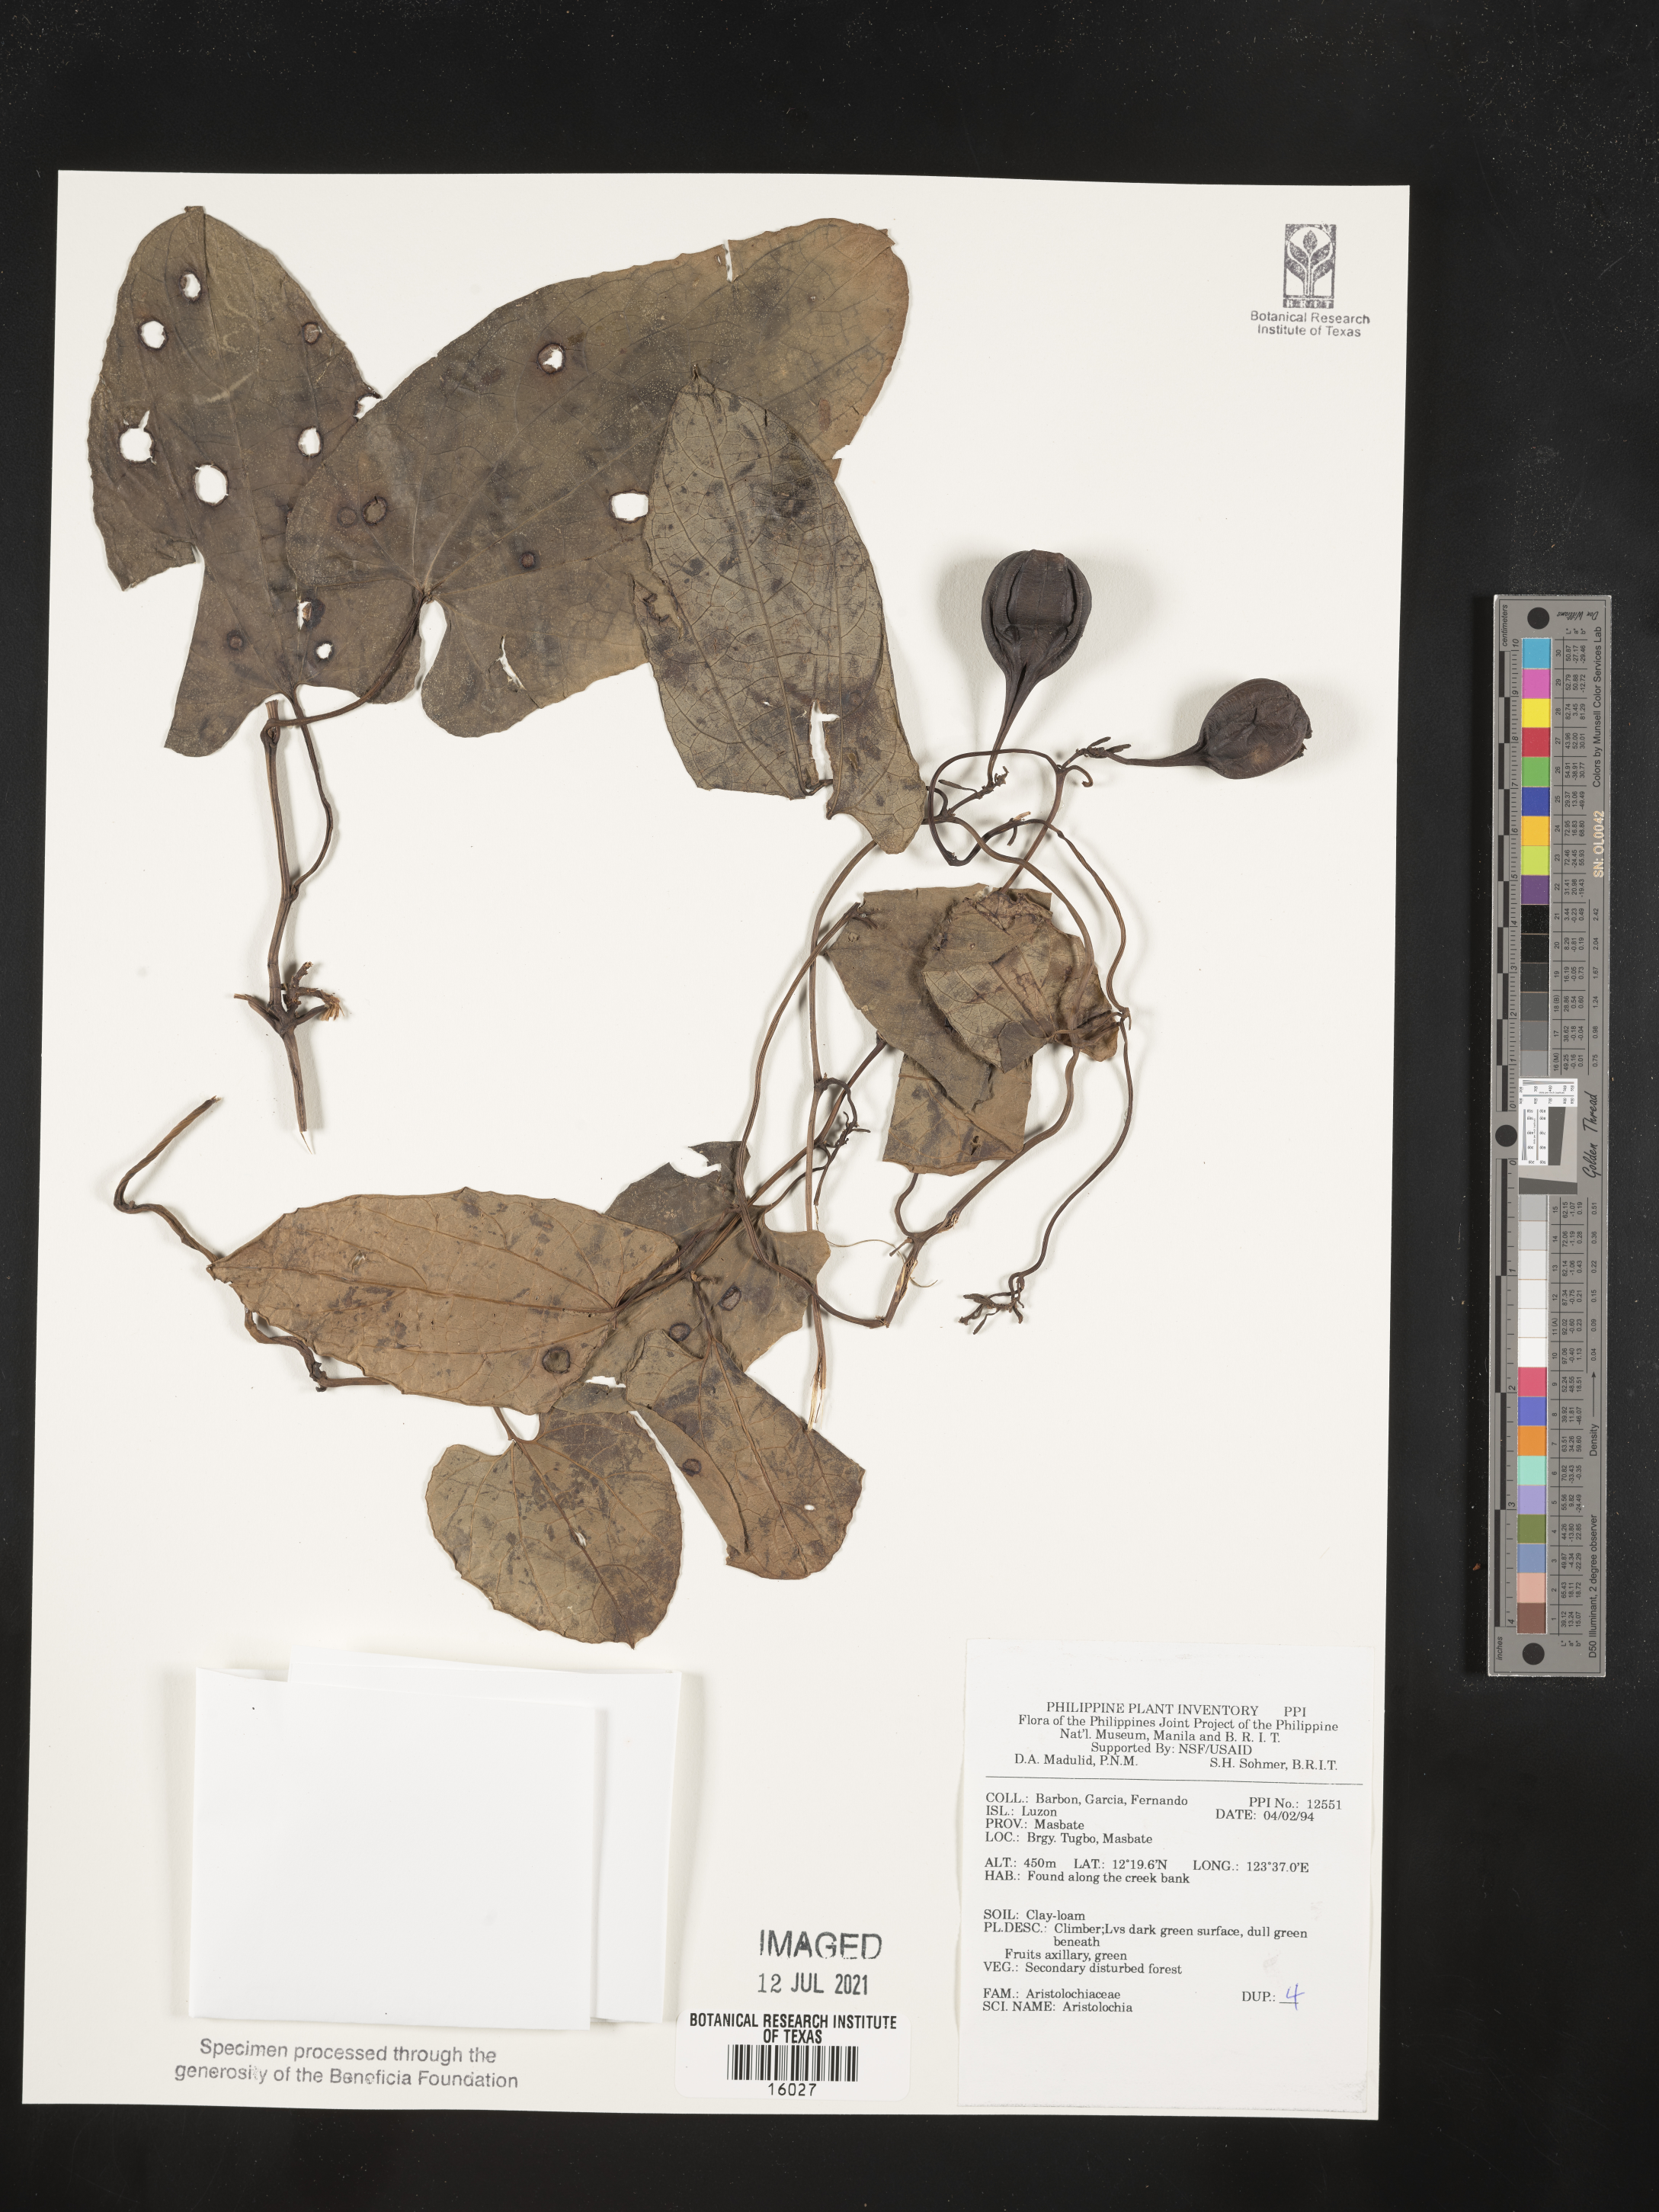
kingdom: Plantae
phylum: Tracheophyta
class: Magnoliopsida
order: Piperales
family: Aristolochiaceae
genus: Aristolochia
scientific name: Aristolochia
